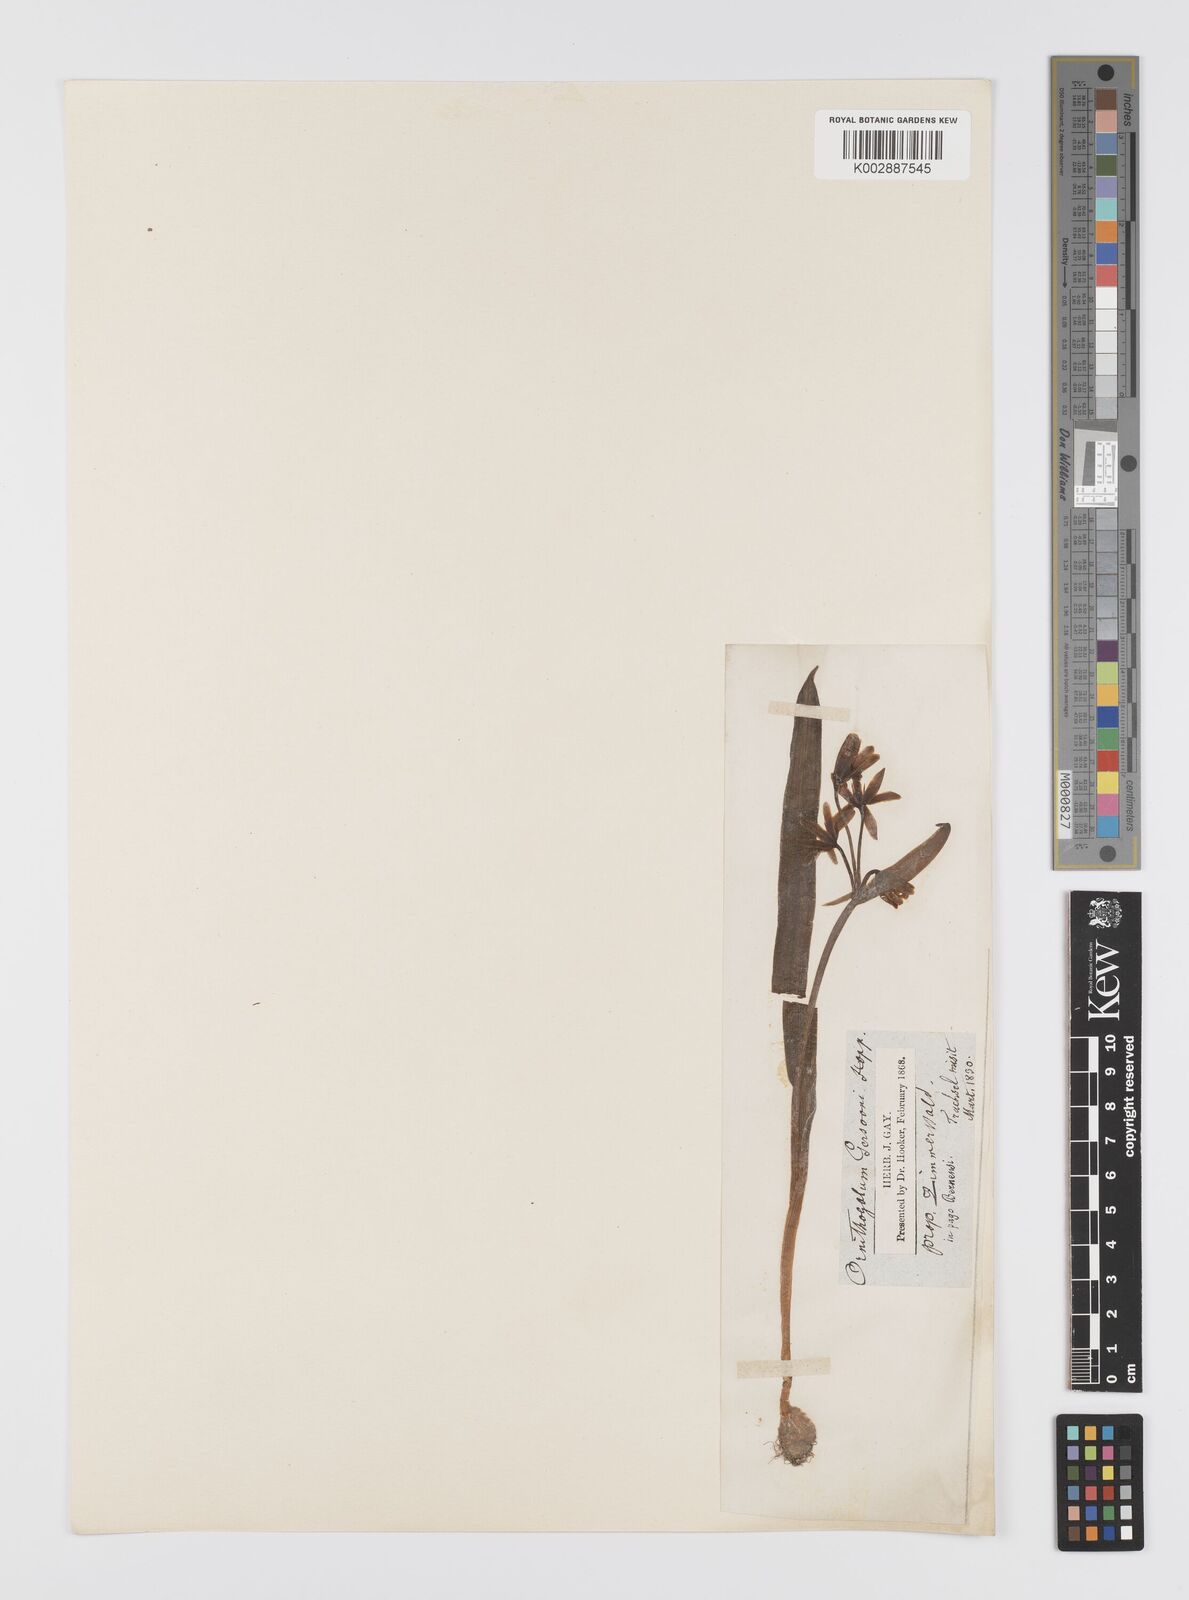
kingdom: Plantae
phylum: Tracheophyta
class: Liliopsida
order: Liliales
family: Liliaceae
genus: Gagea
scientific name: Gagea lutea
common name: Yellow star-of-bethlehem
